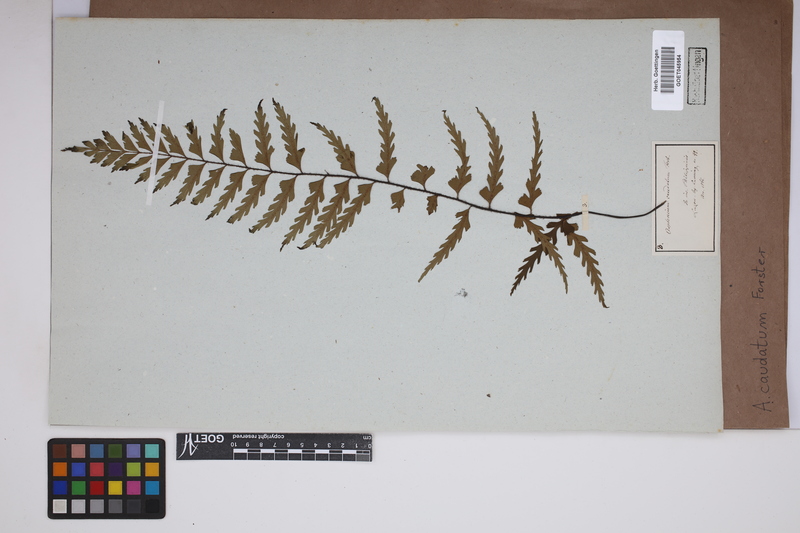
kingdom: Plantae
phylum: Tracheophyta
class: Polypodiopsida
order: Polypodiales
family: Aspleniaceae
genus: Asplenium
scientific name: Asplenium caudatum
